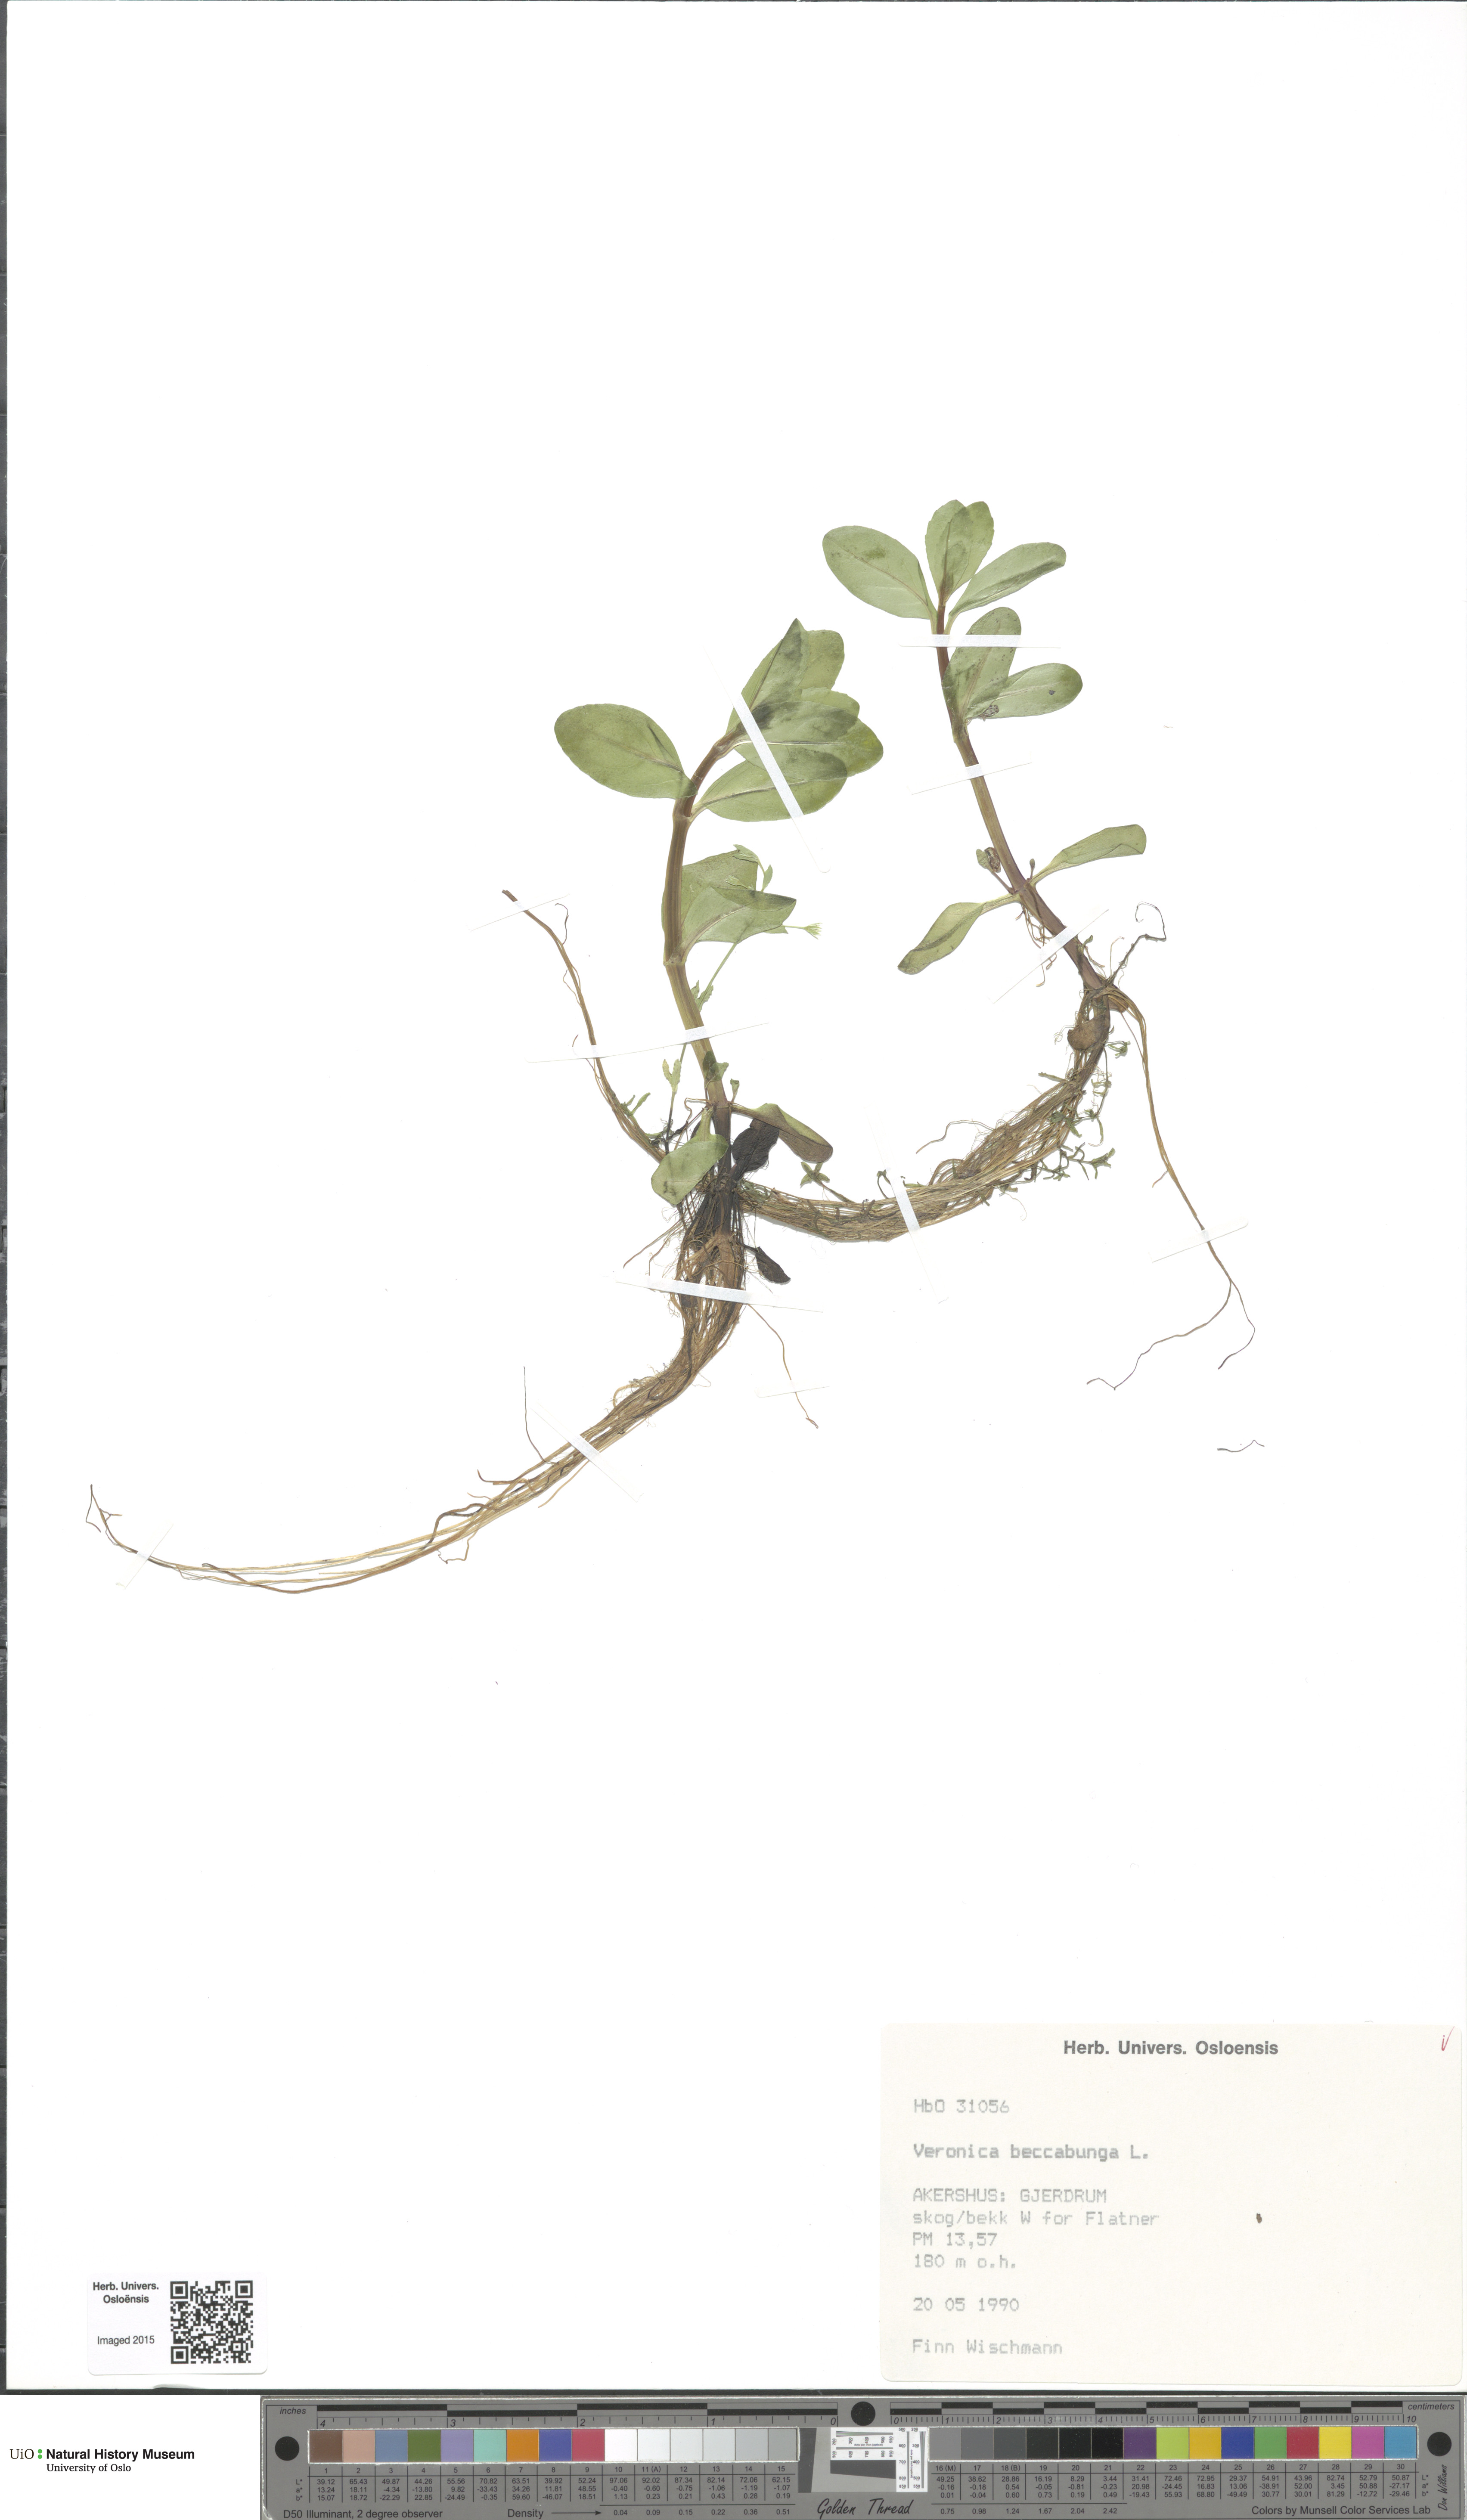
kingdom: Plantae
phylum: Tracheophyta
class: Magnoliopsida
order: Lamiales
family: Plantaginaceae
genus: Veronica
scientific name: Veronica beccabunga
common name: Brooklime
